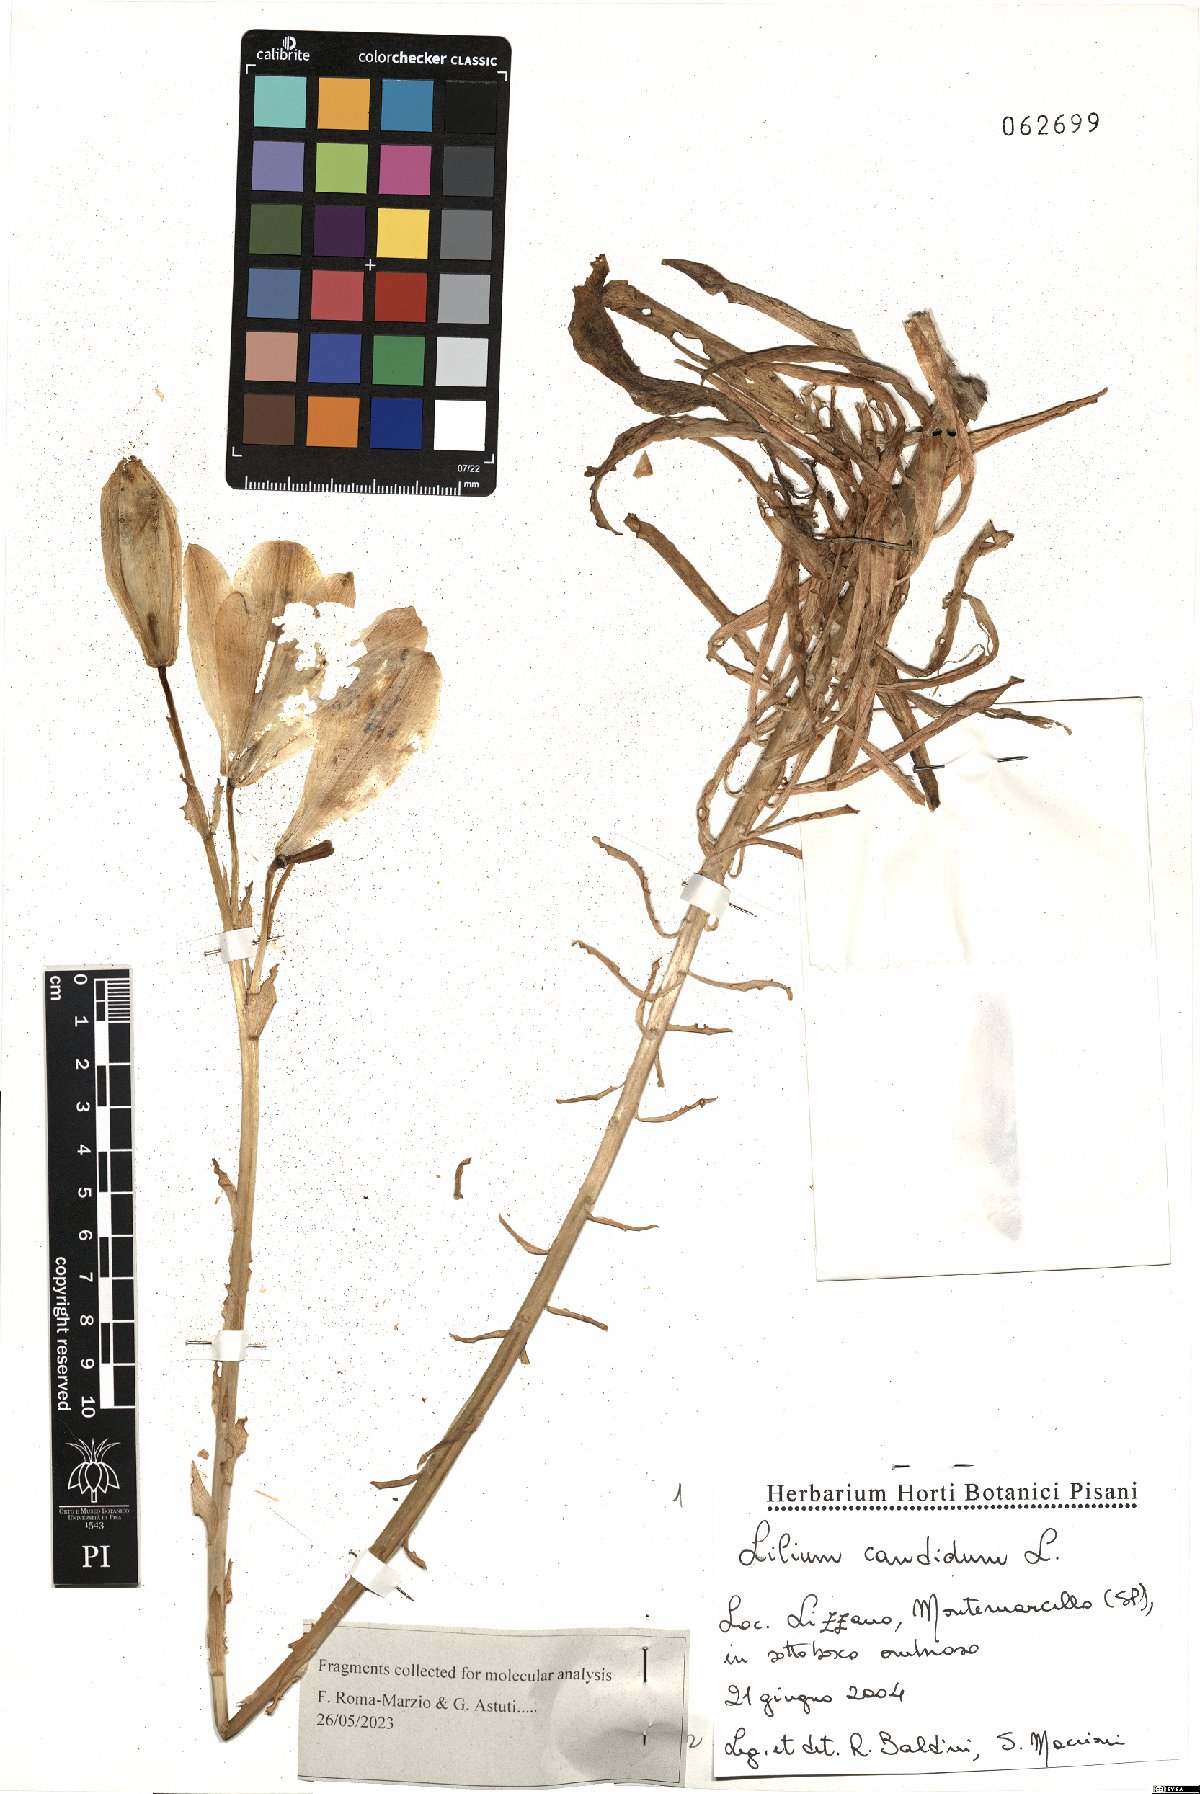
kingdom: Plantae
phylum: Tracheophyta
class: Liliopsida
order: Liliales
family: Liliaceae
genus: Lilium
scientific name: Lilium candidum
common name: Madonna lily
